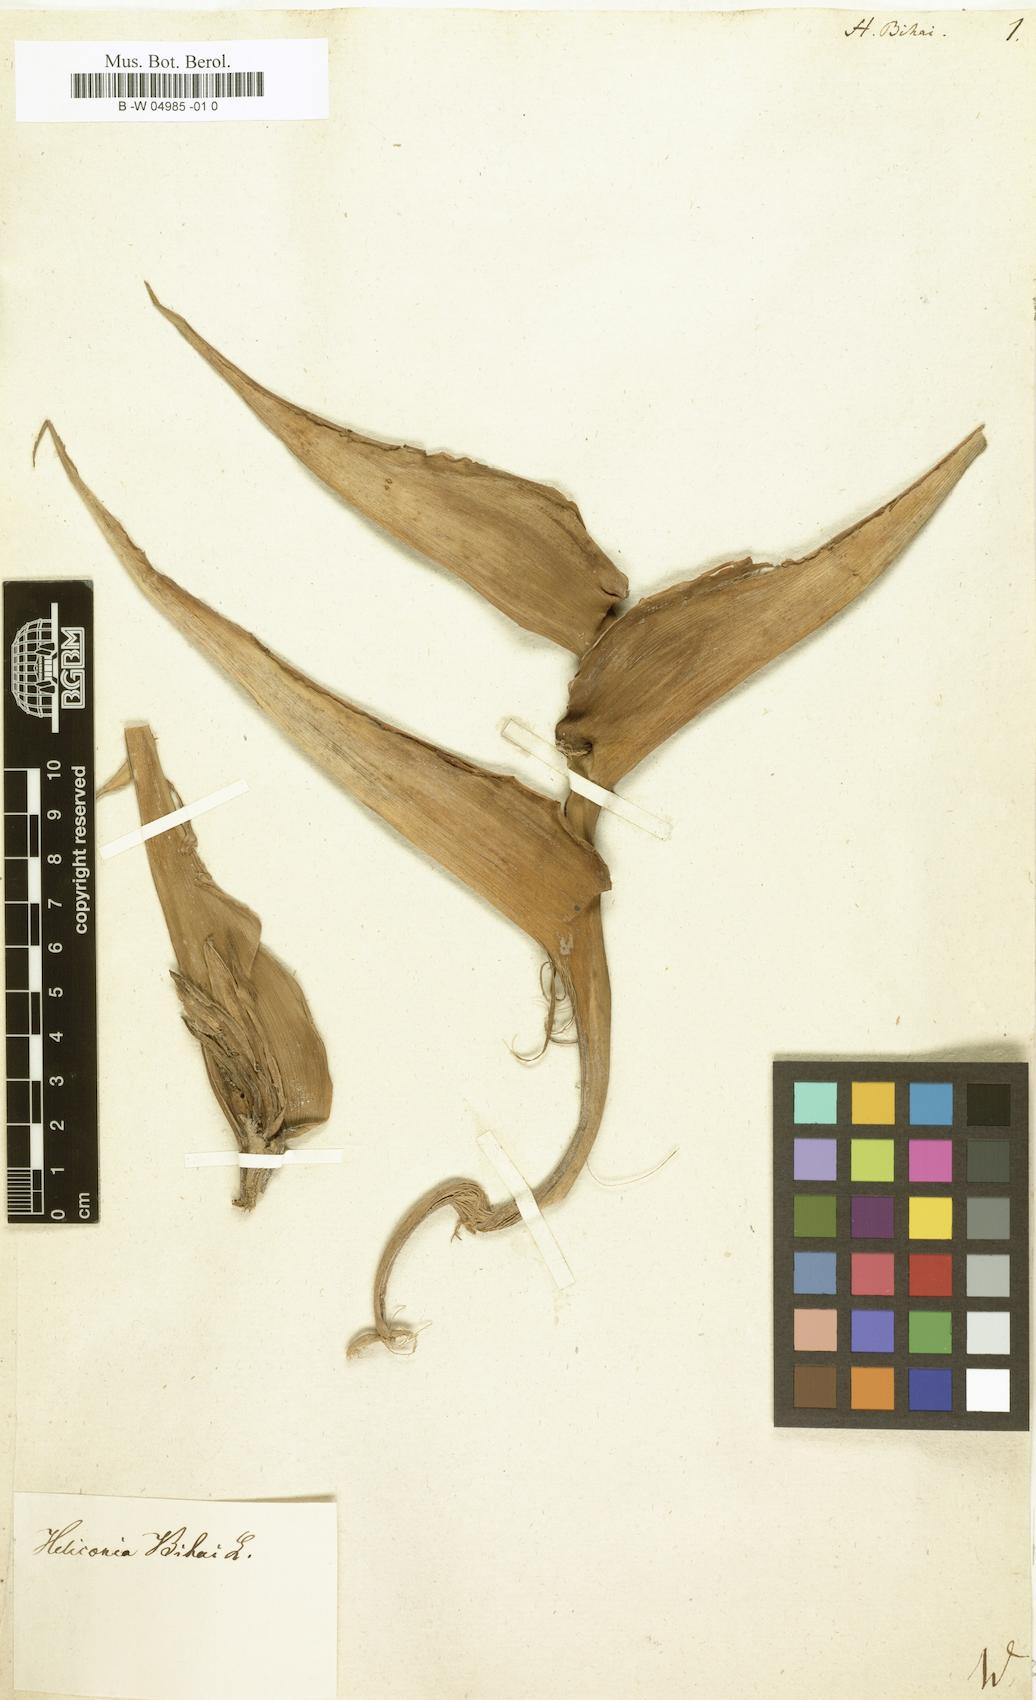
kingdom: Plantae
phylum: Tracheophyta
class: Liliopsida
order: Zingiberales
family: Heliconiaceae
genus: Heliconia
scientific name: Heliconia bihai
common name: Macaw flower
